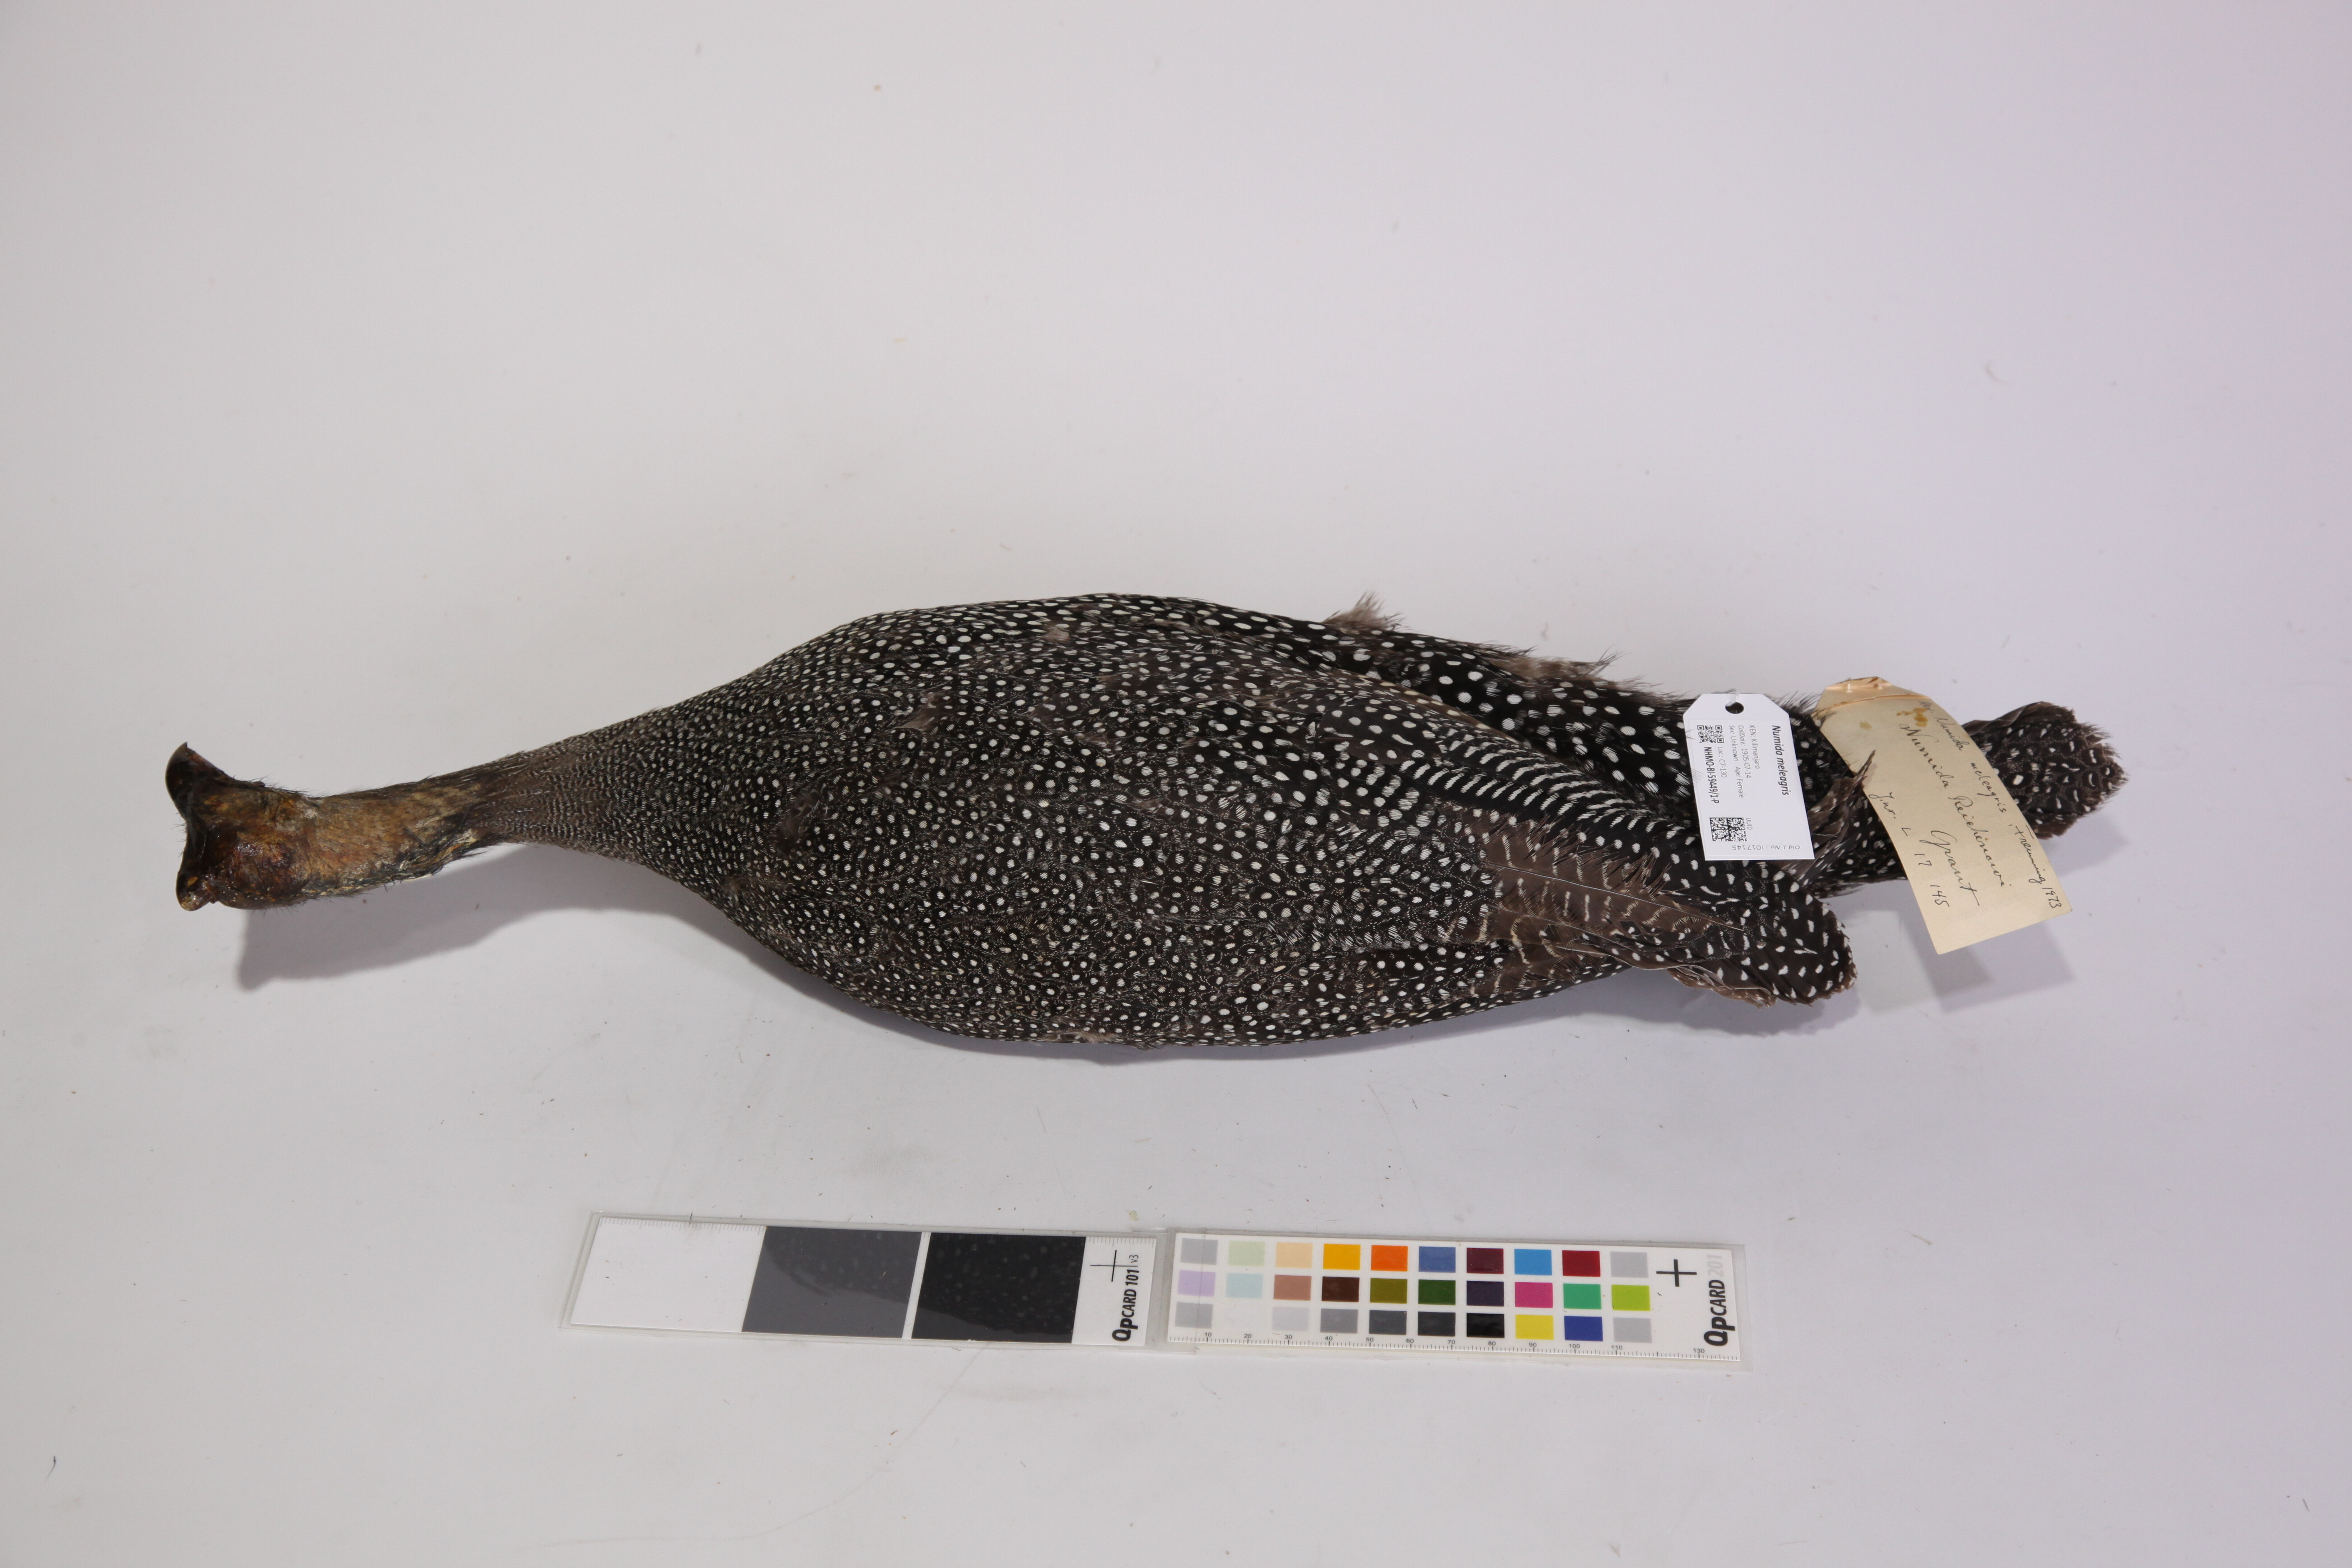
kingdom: Animalia
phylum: Chordata
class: Aves
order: Galliformes
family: Numididae
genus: Numida
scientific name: Numida meleagris
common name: Helmeted guineafowl
